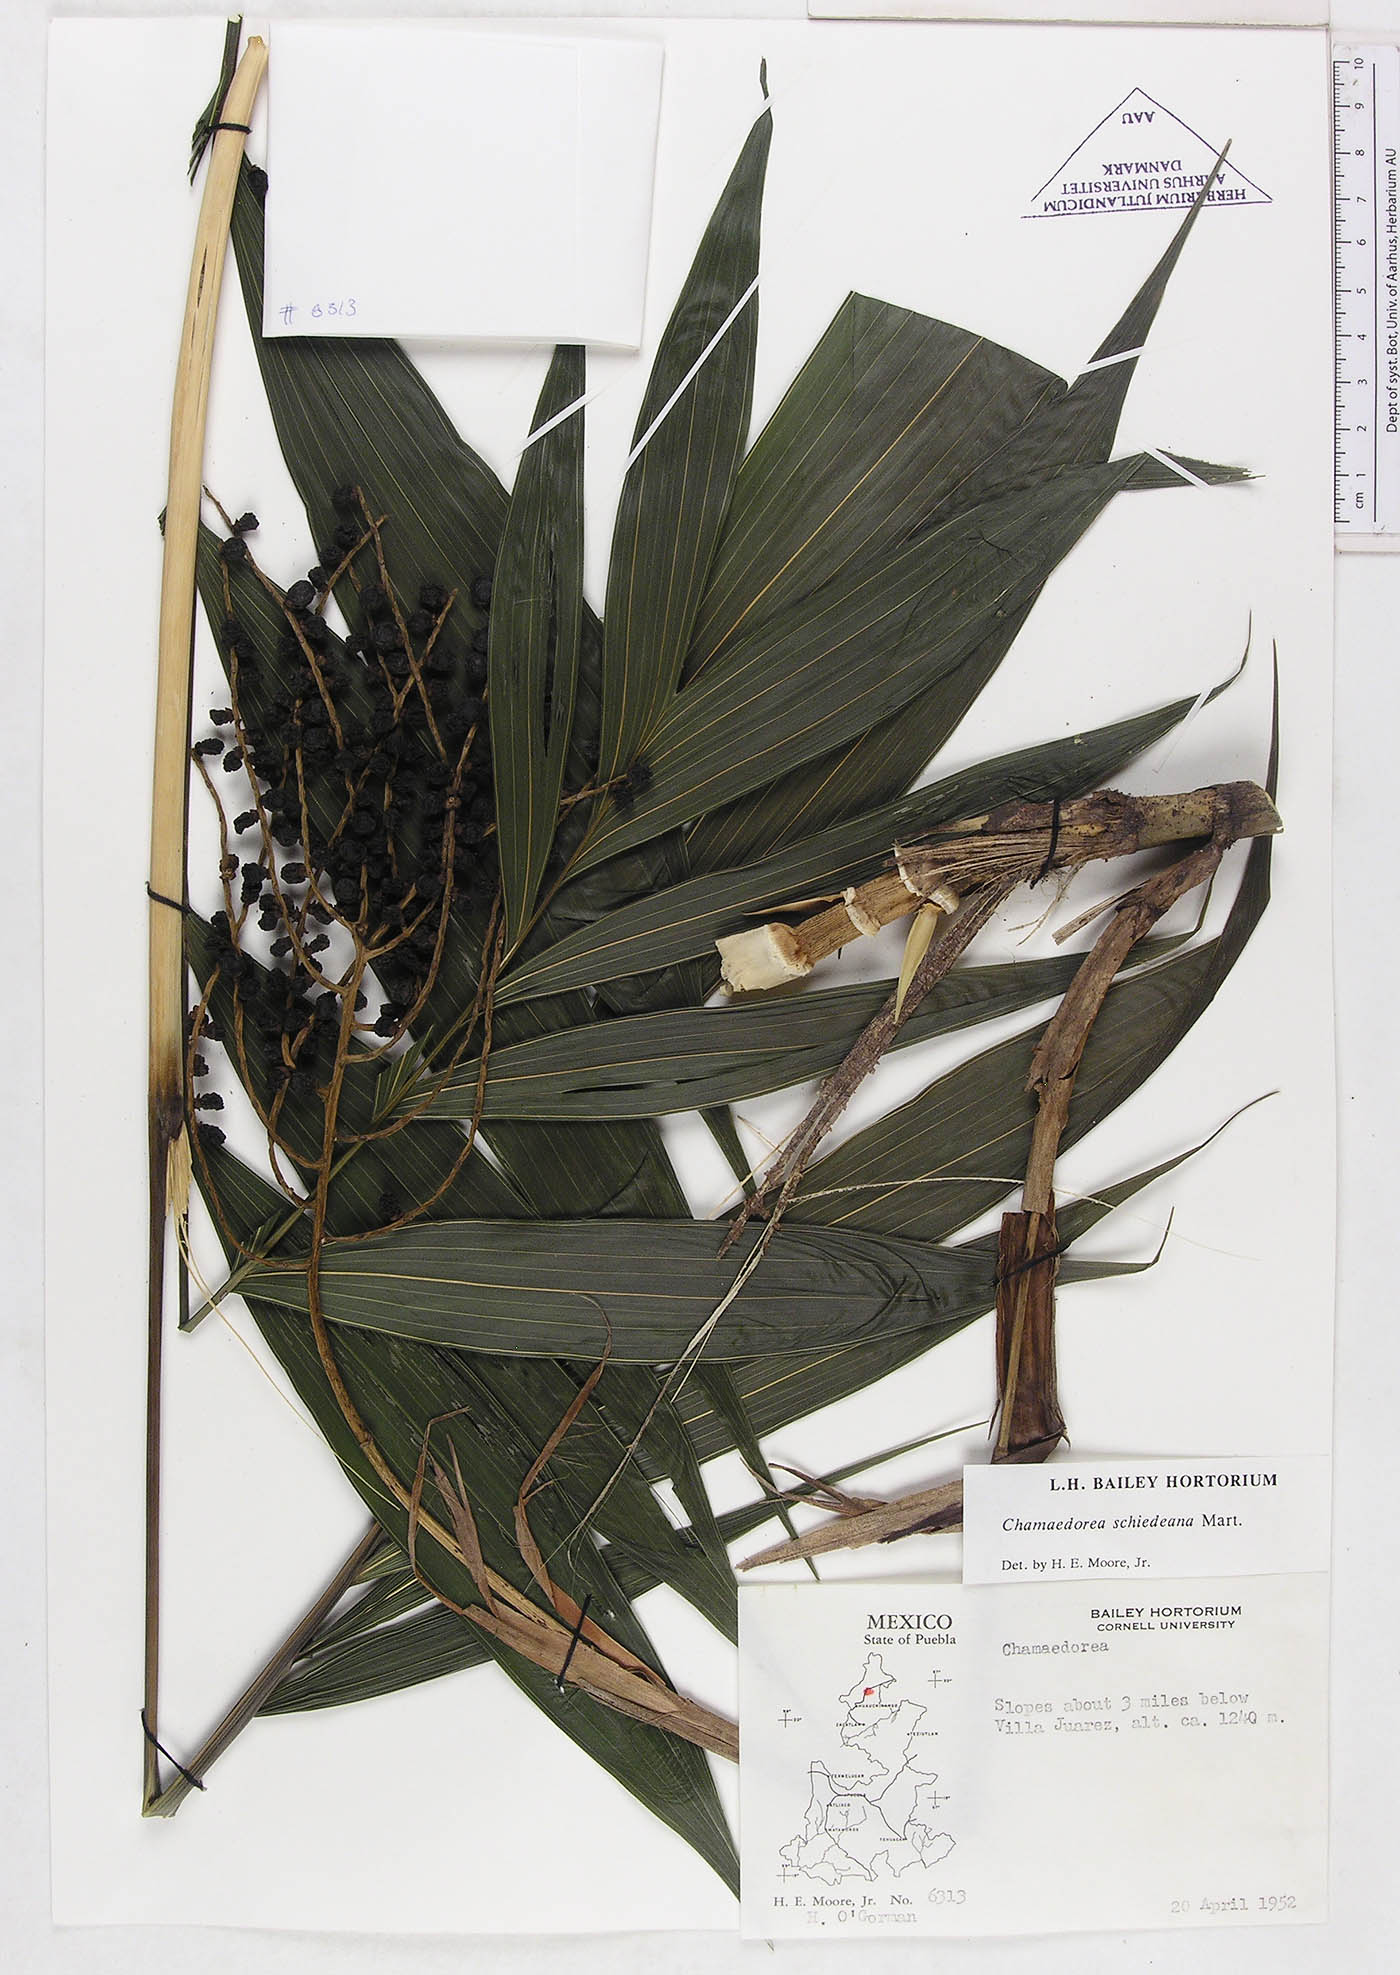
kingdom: Plantae
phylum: Tracheophyta
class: Liliopsida
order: Arecales
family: Arecaceae
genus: Chamaedorea
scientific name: Chamaedorea schiedeana
